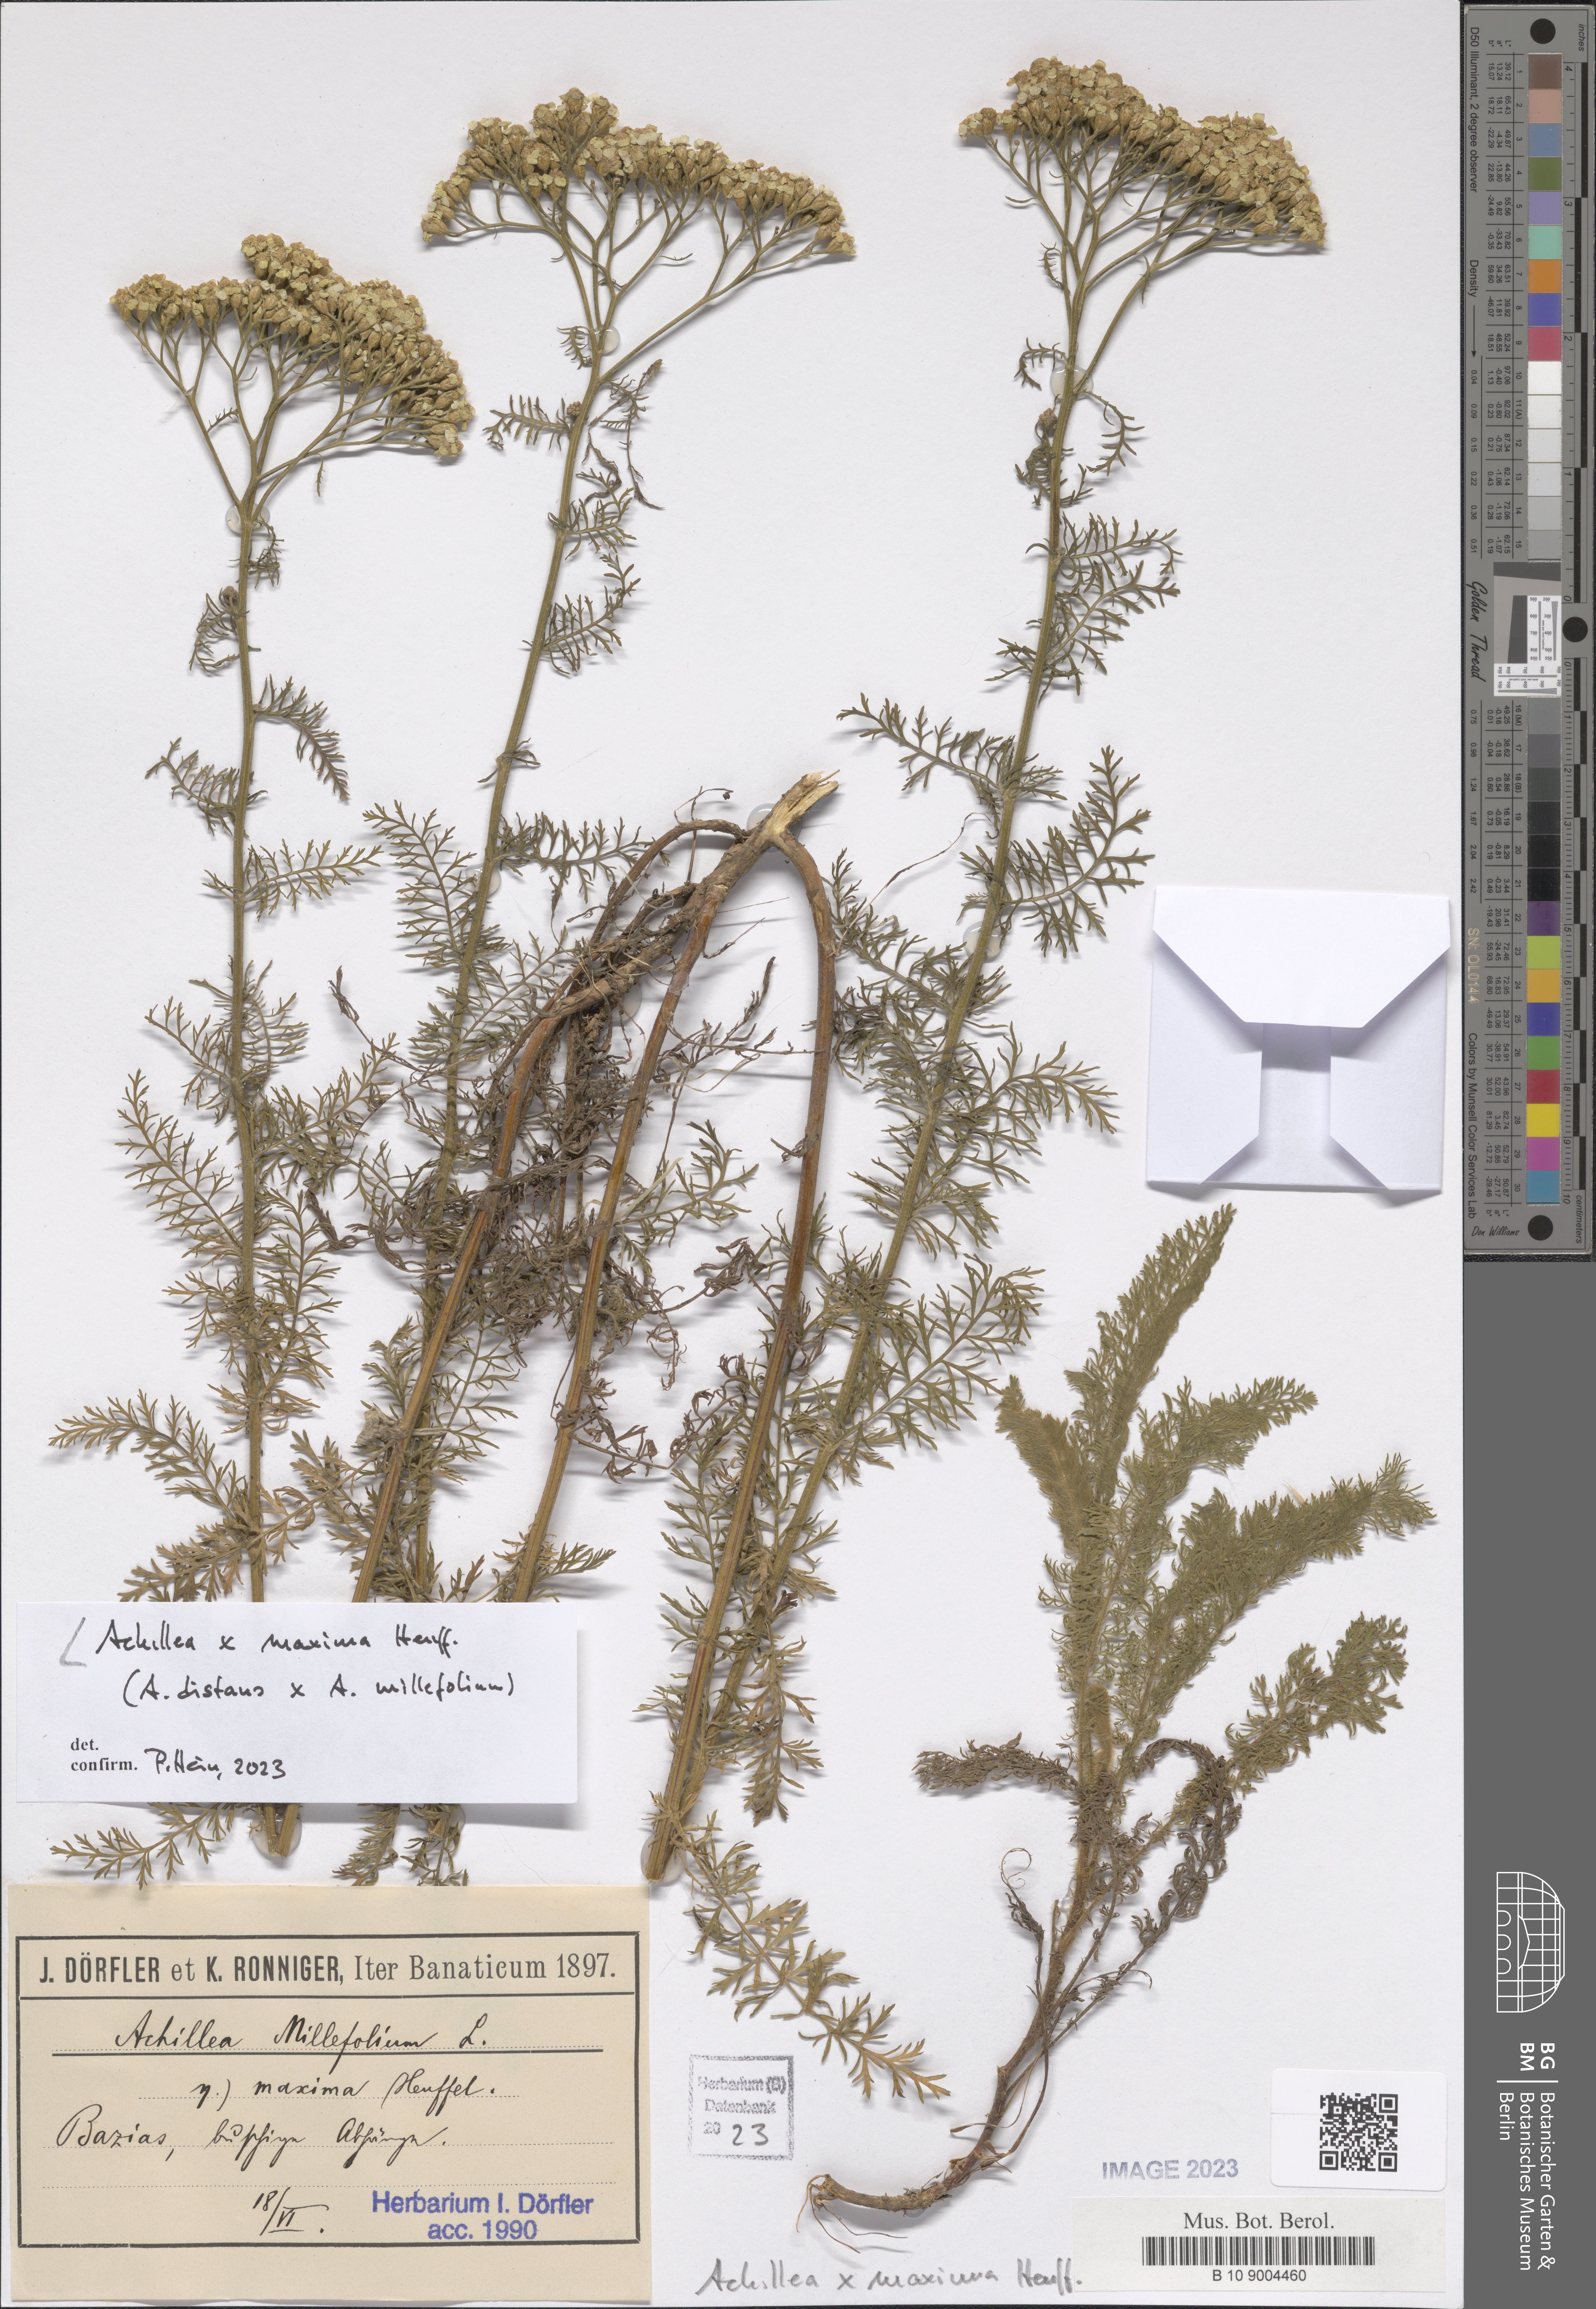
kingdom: Plantae
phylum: Tracheophyta
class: Magnoliopsida
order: Asterales
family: Asteraceae
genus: Achillea
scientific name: Achillea maxima
